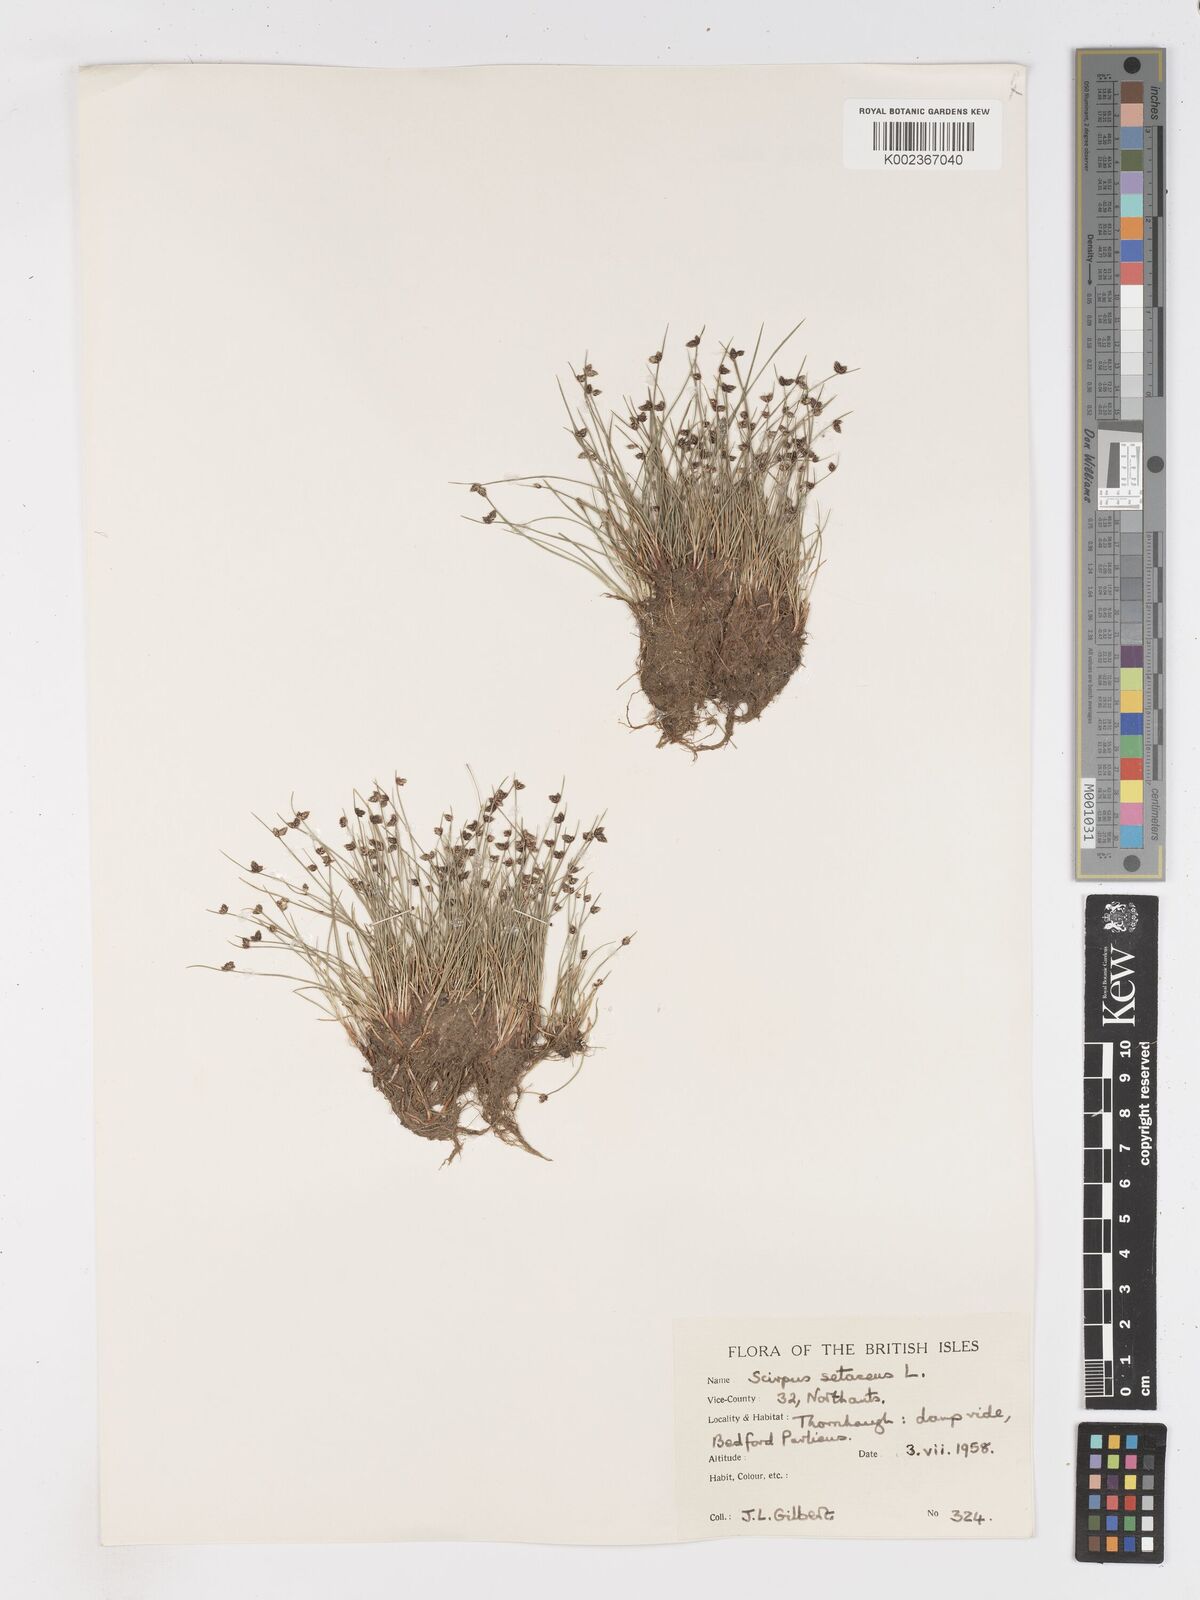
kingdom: Plantae
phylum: Tracheophyta
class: Liliopsida
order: Poales
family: Cyperaceae
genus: Isolepis
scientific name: Isolepis setacea
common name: Bristle club-rush
